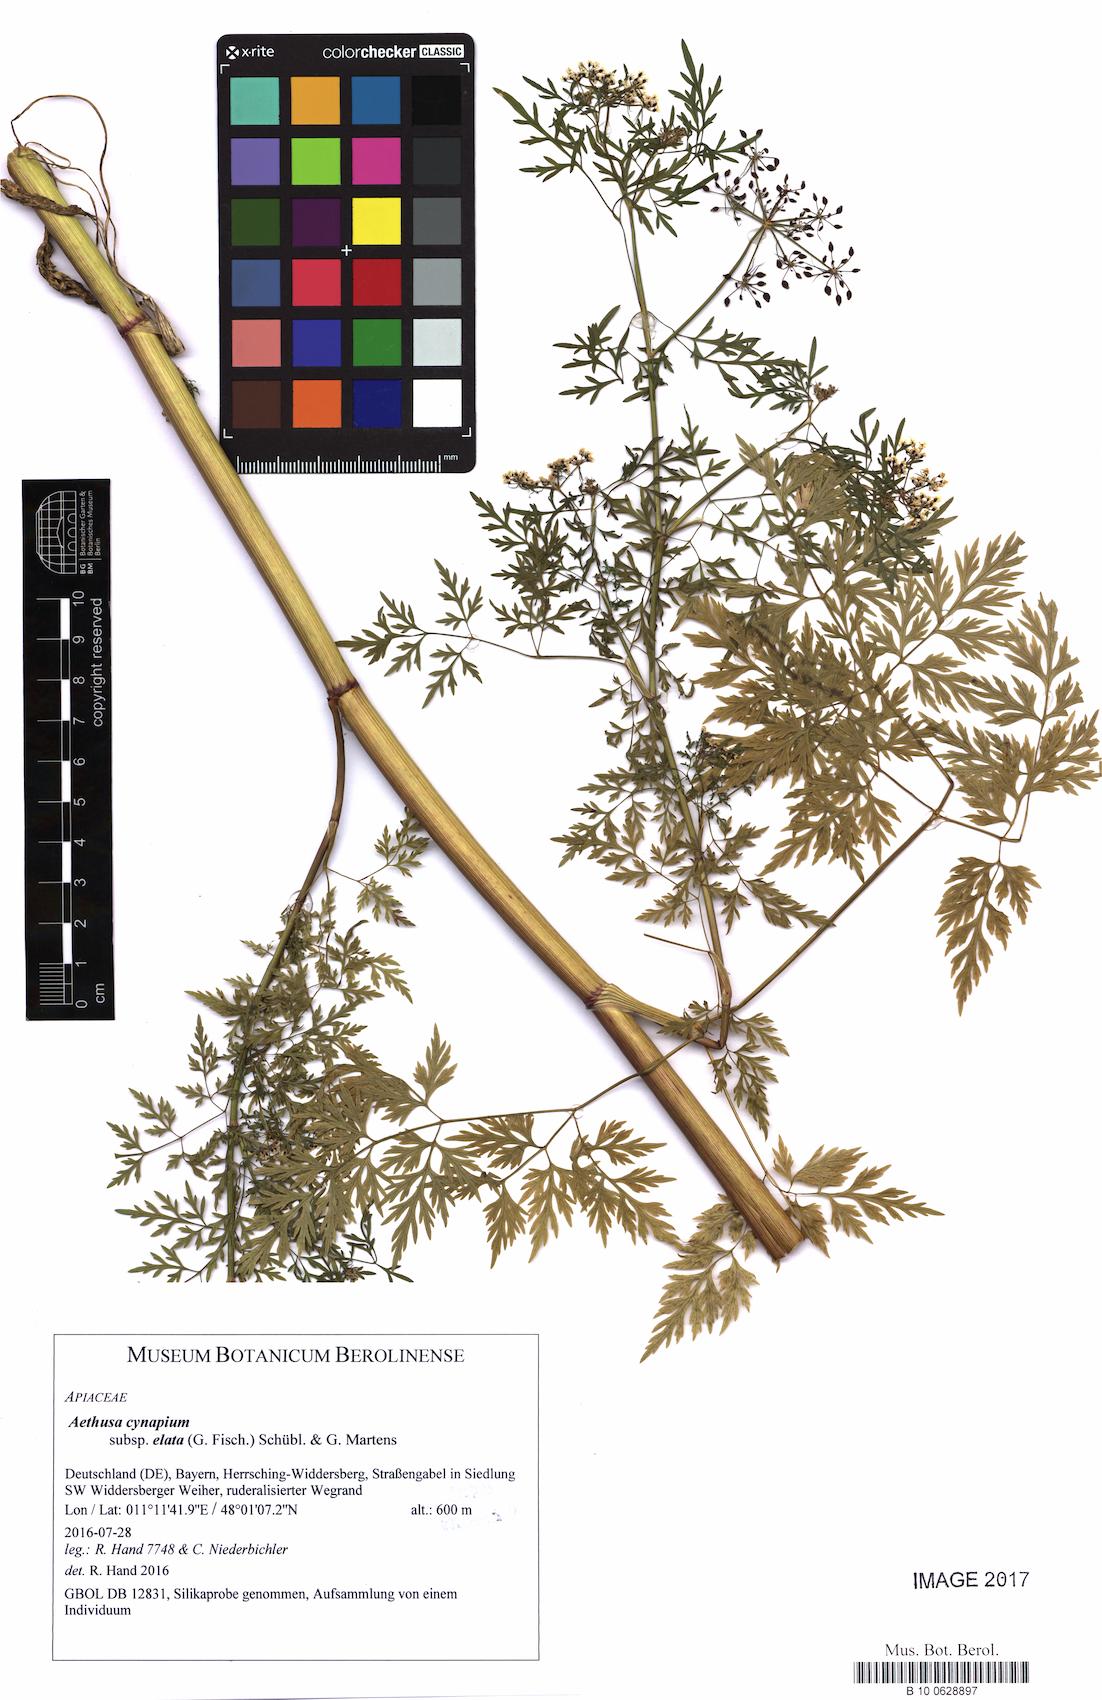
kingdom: Plantae
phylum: Tracheophyta
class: Magnoliopsida
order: Apiales
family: Apiaceae
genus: Aethusa
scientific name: Aethusa cynapium
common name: Fool's parsley
